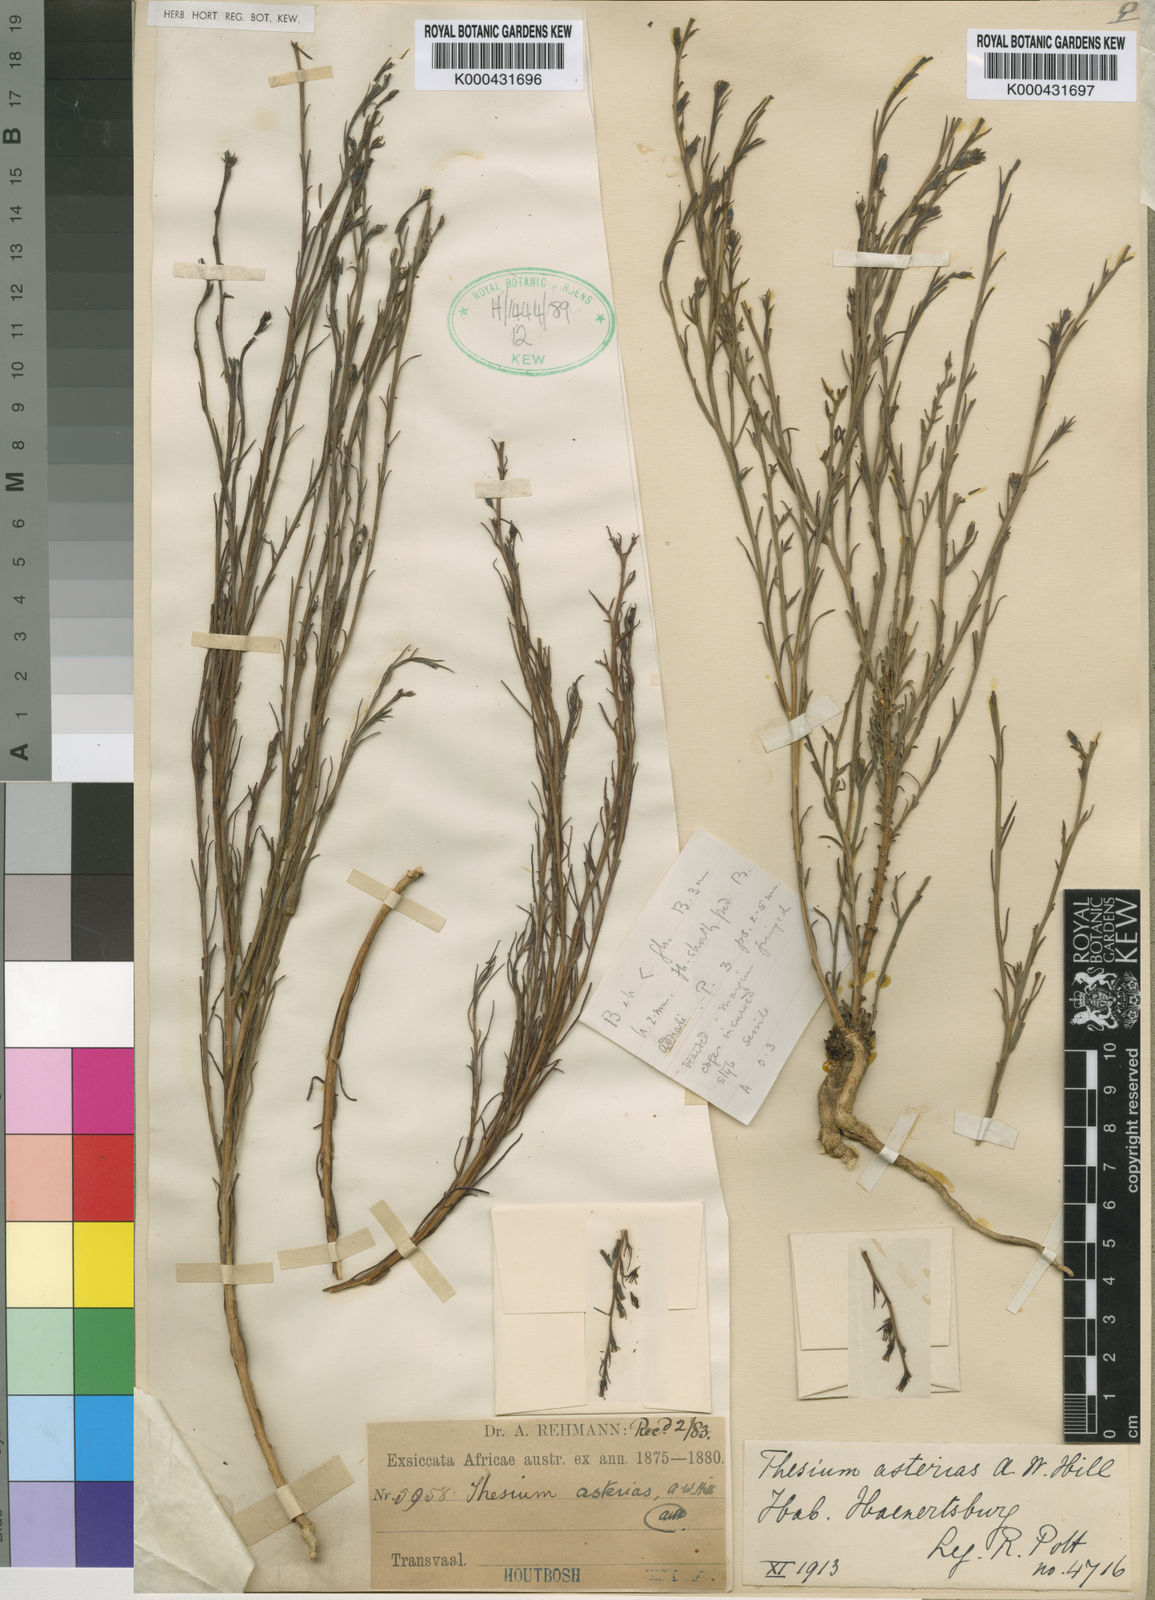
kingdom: Plantae
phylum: Tracheophyta
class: Magnoliopsida
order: Santalales
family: Thesiaceae
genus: Thesium
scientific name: Thesium asterias
